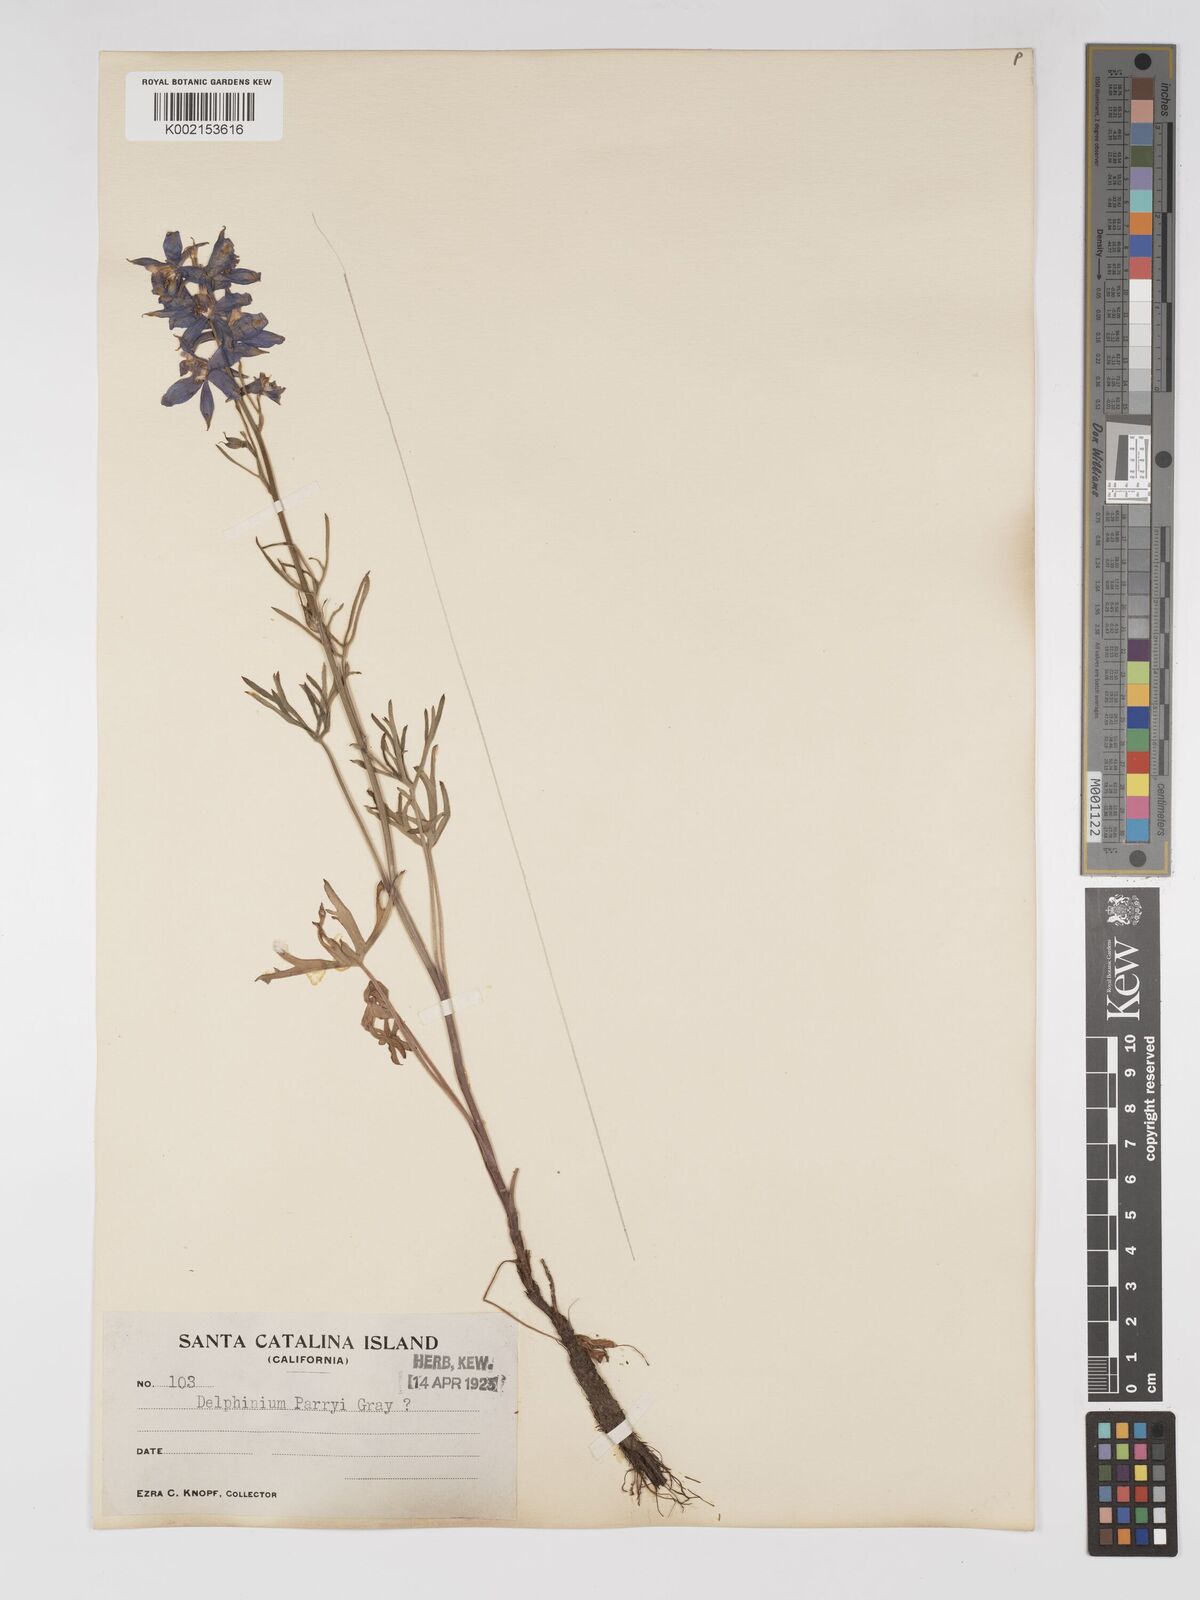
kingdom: Plantae
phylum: Tracheophyta
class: Magnoliopsida
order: Ranunculales
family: Ranunculaceae
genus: Delphinium
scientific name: Delphinium parryi
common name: Parry's larkspur
